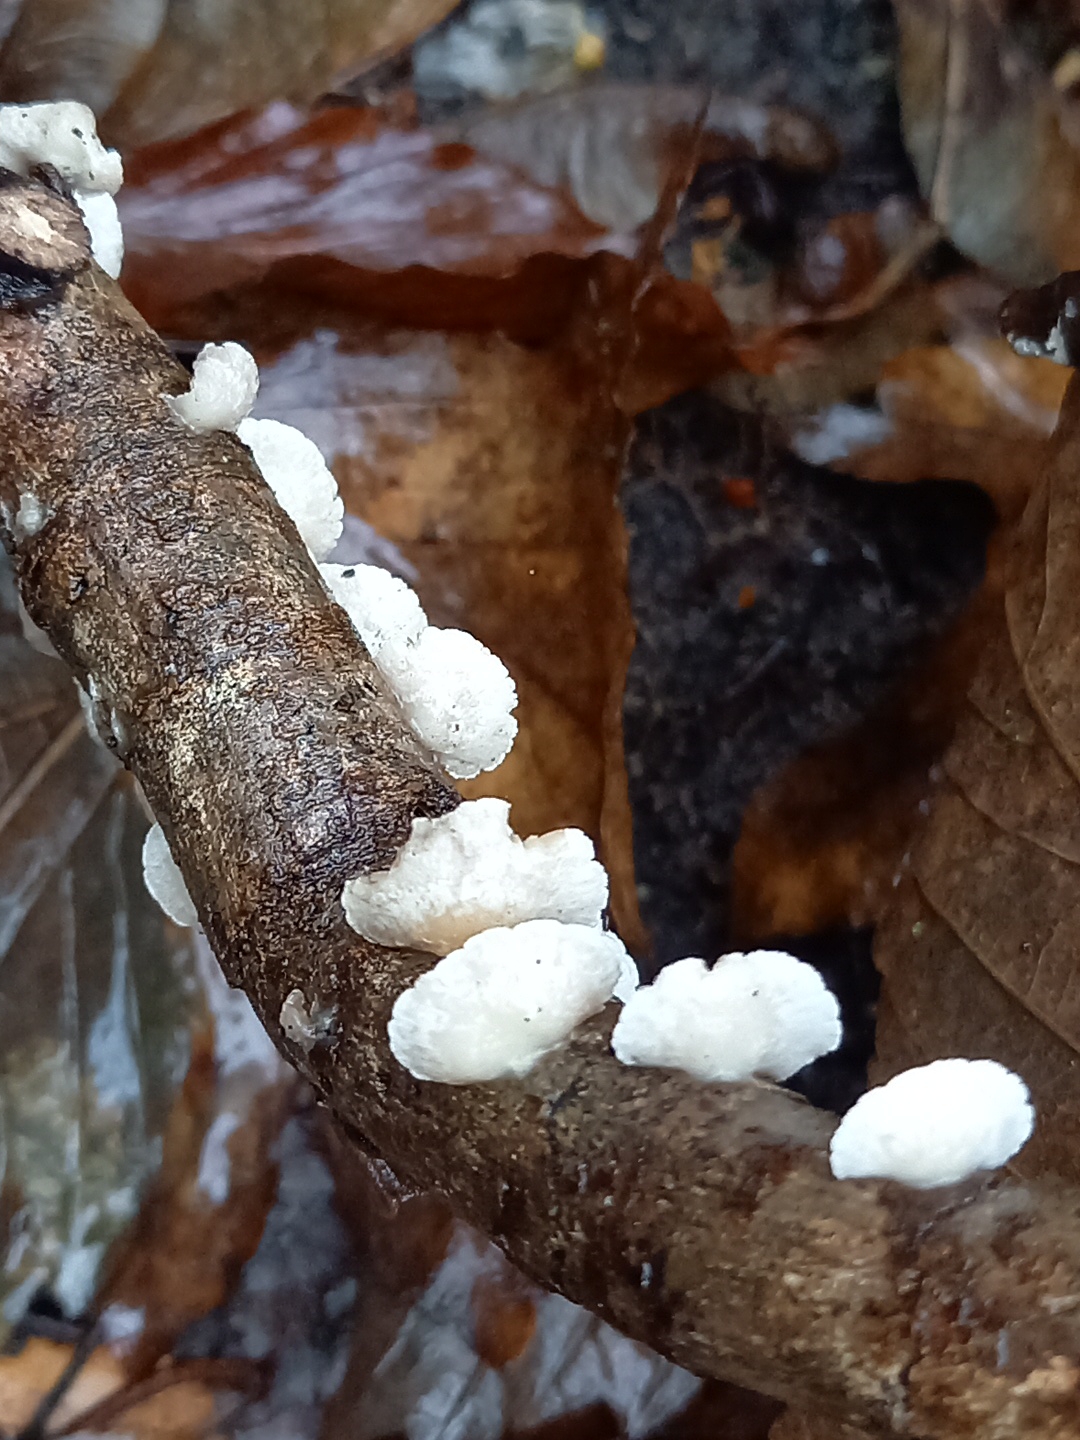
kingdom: Fungi
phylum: Basidiomycota
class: Agaricomycetes
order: Agaricales
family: Crepidotaceae
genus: Crepidotus
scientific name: Crepidotus
